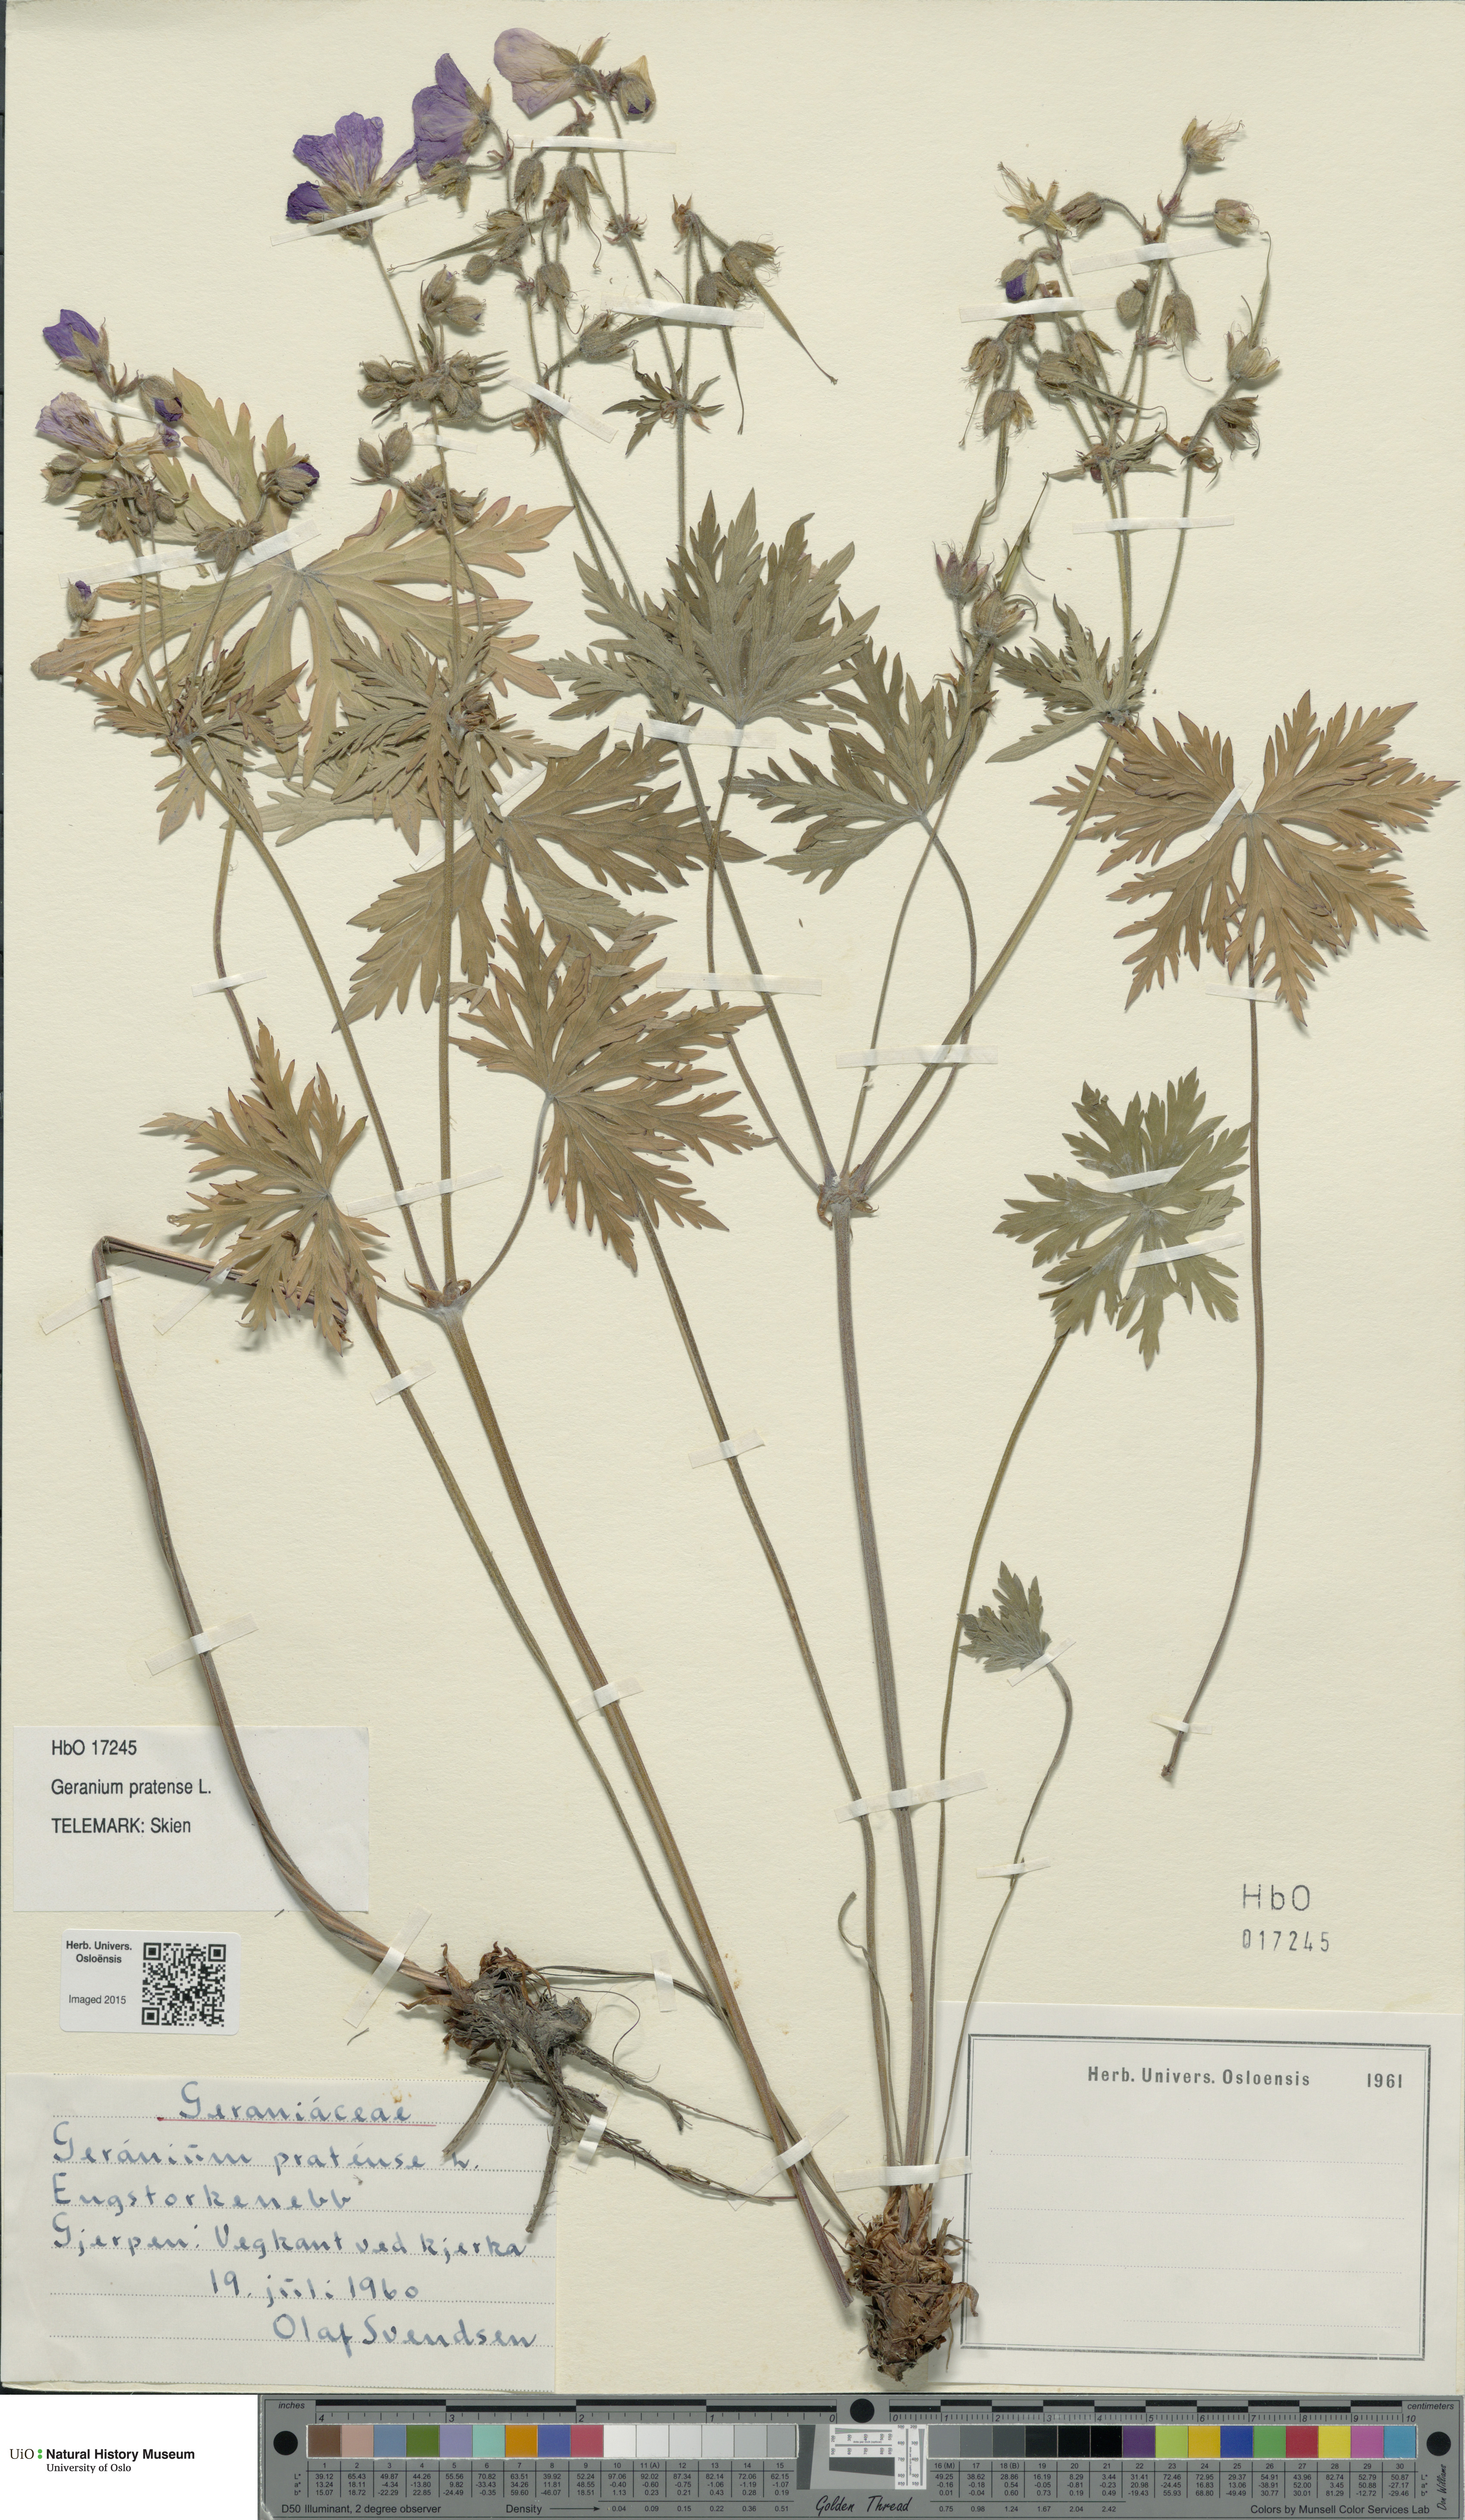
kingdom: Plantae
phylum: Tracheophyta
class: Magnoliopsida
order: Geraniales
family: Geraniaceae
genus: Geranium
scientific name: Geranium pratense
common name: Meadow crane's-bill
